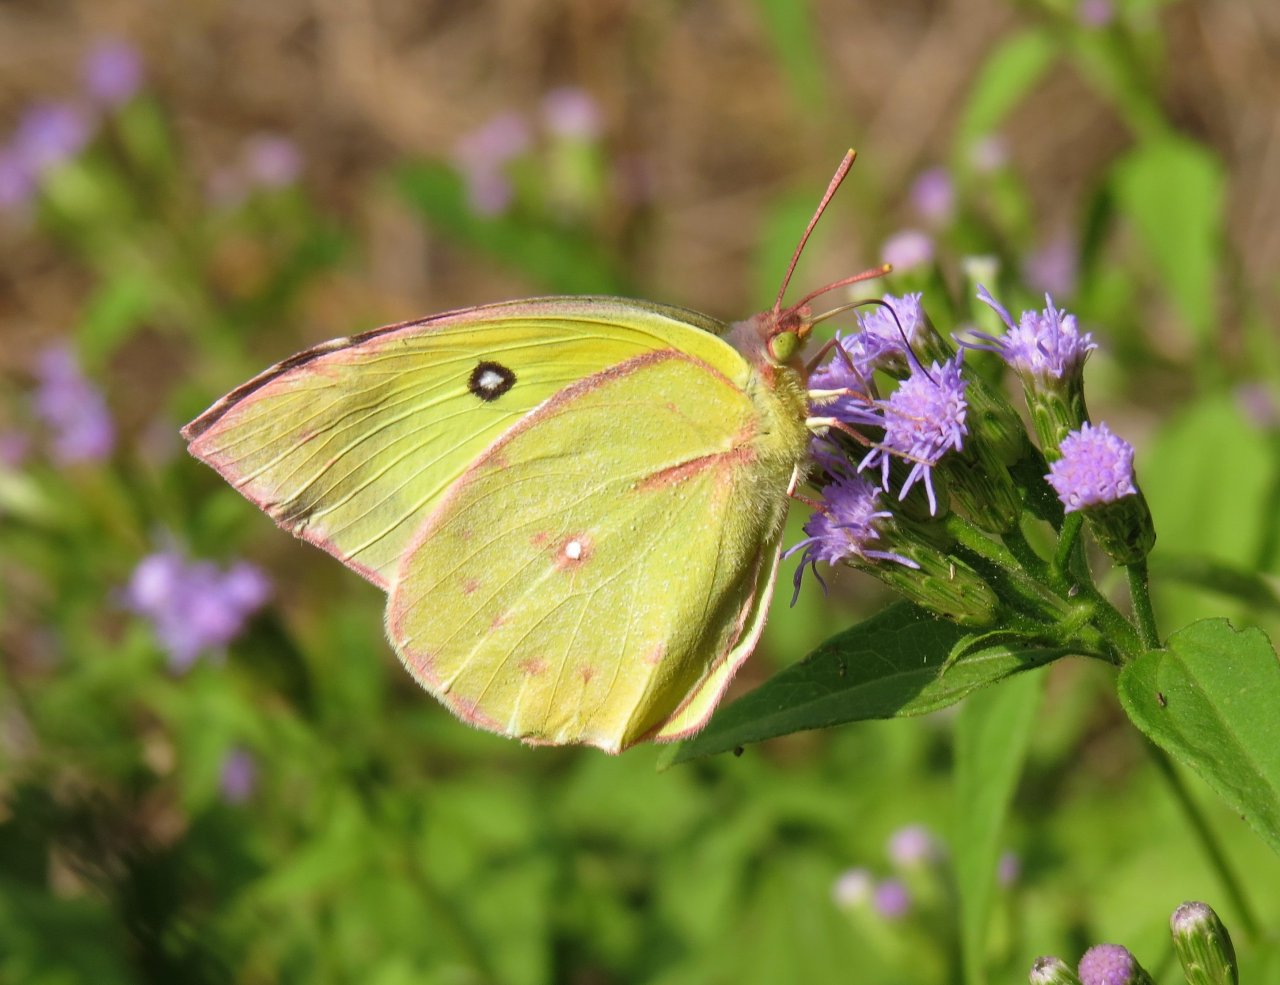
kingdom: Animalia
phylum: Arthropoda
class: Insecta
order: Lepidoptera
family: Pieridae
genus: Zerene
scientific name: Zerene cesonia
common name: Southern Dogface
